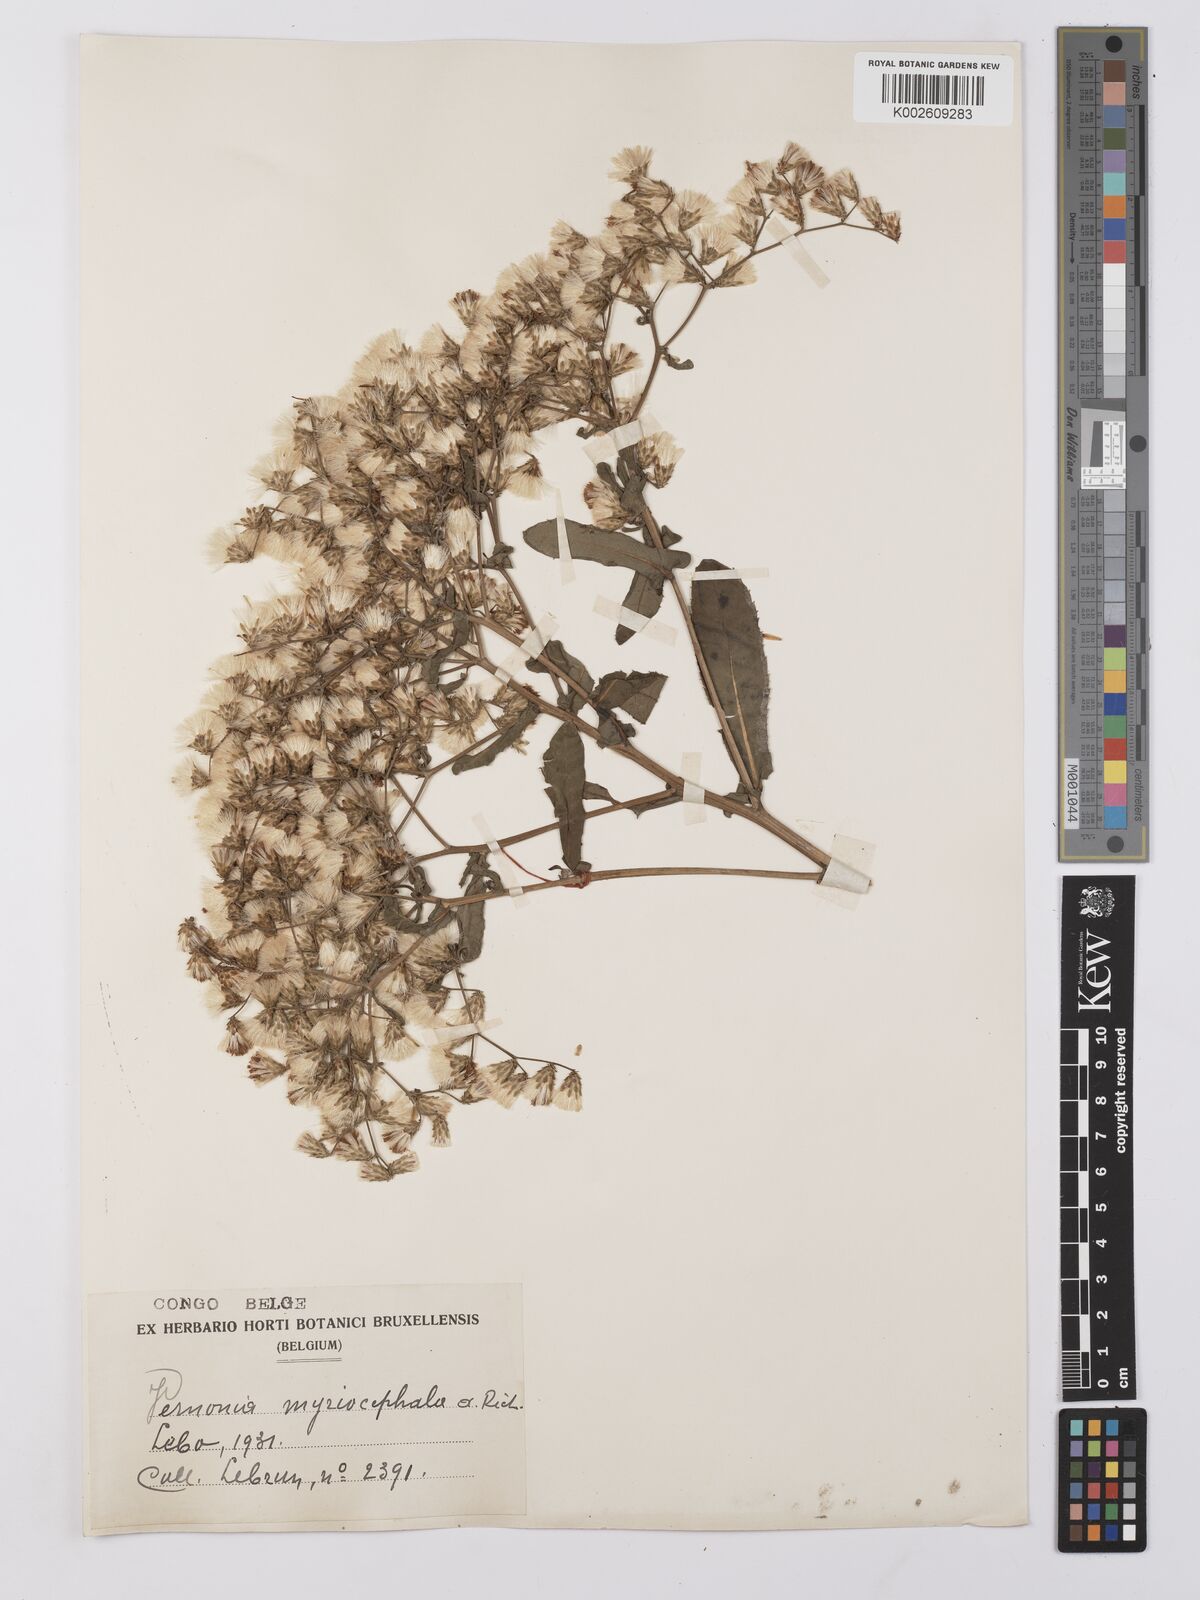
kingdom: Plantae
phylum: Tracheophyta
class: Magnoliopsida
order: Asterales
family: Asteraceae
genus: Gymnanthemum
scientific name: Gymnanthemum theophrastifolium
